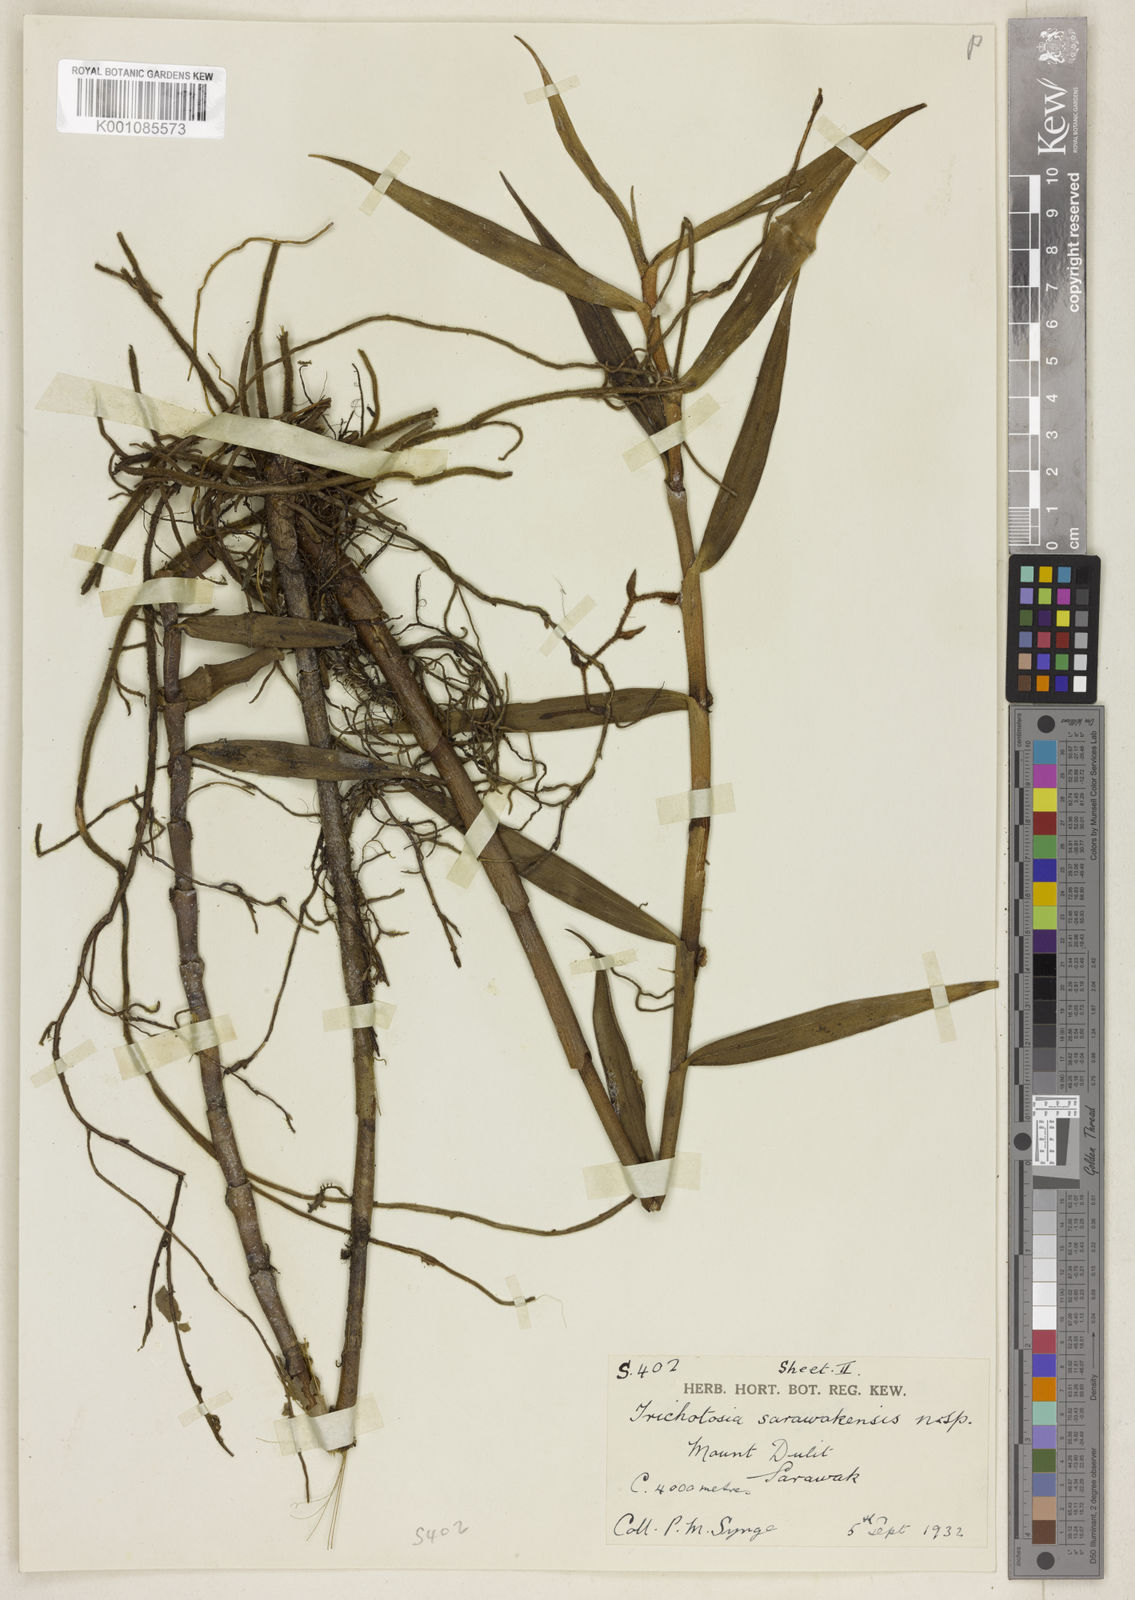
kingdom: Plantae
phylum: Tracheophyta
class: Liliopsida
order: Asparagales
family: Orchidaceae
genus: Trichotosia
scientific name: Trichotosia sarawakensis
